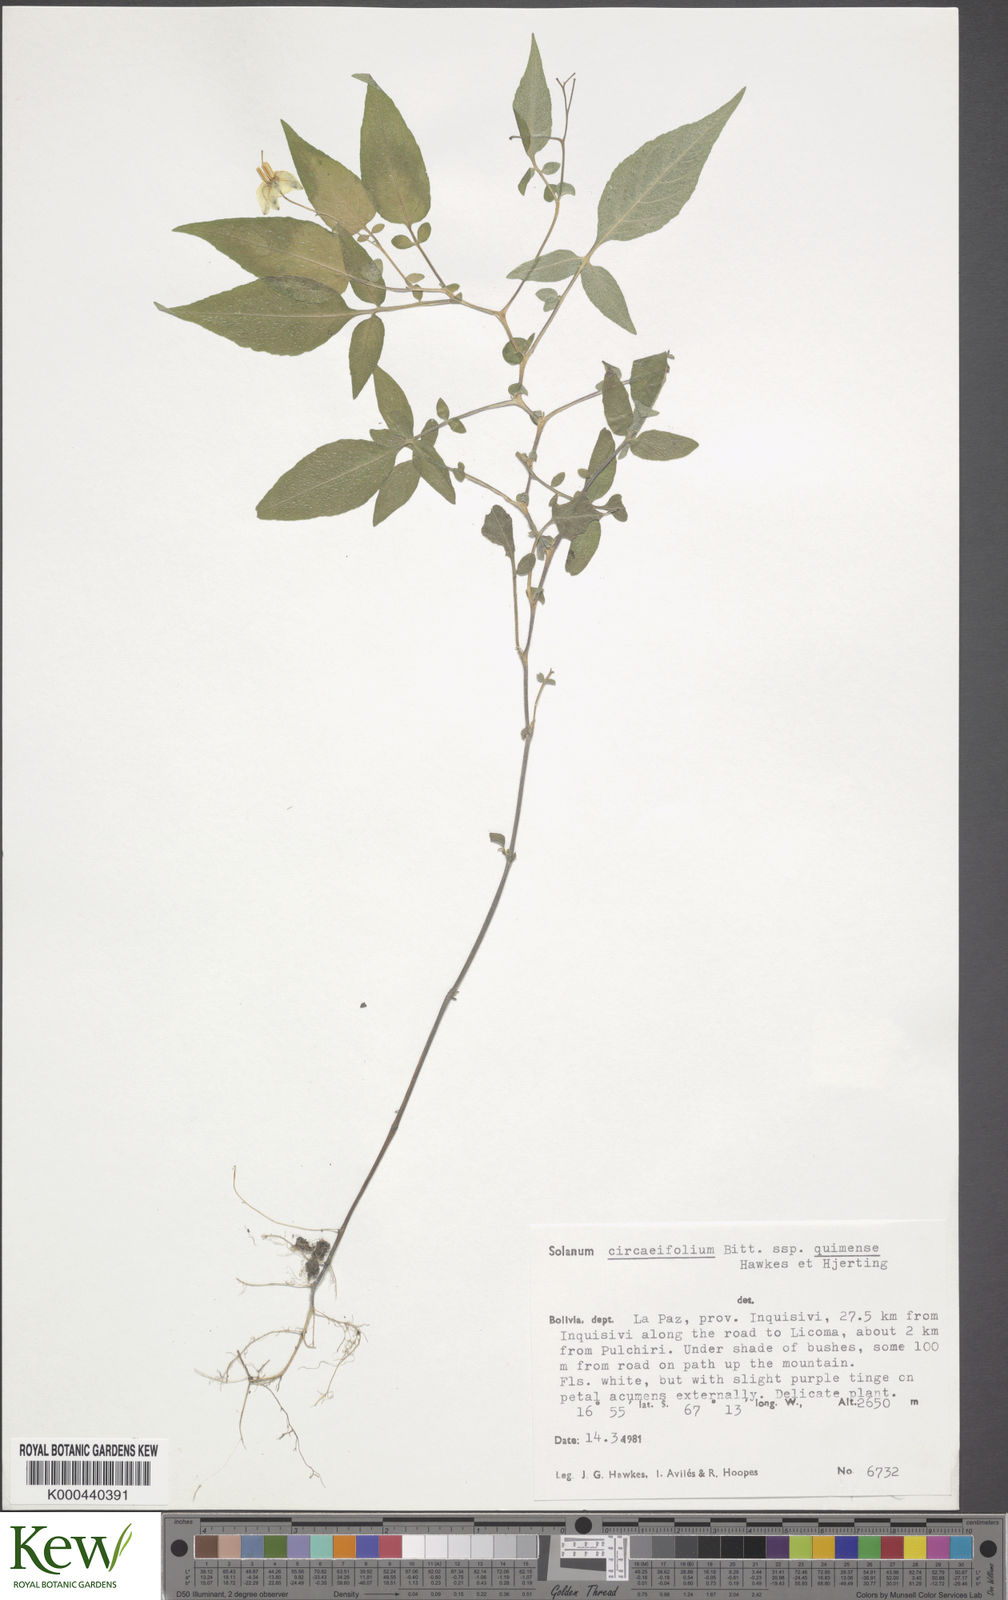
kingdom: Plantae
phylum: Tracheophyta
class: Magnoliopsida
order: Solanales
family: Solanaceae
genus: Solanum
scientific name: Solanum stipuloideum
